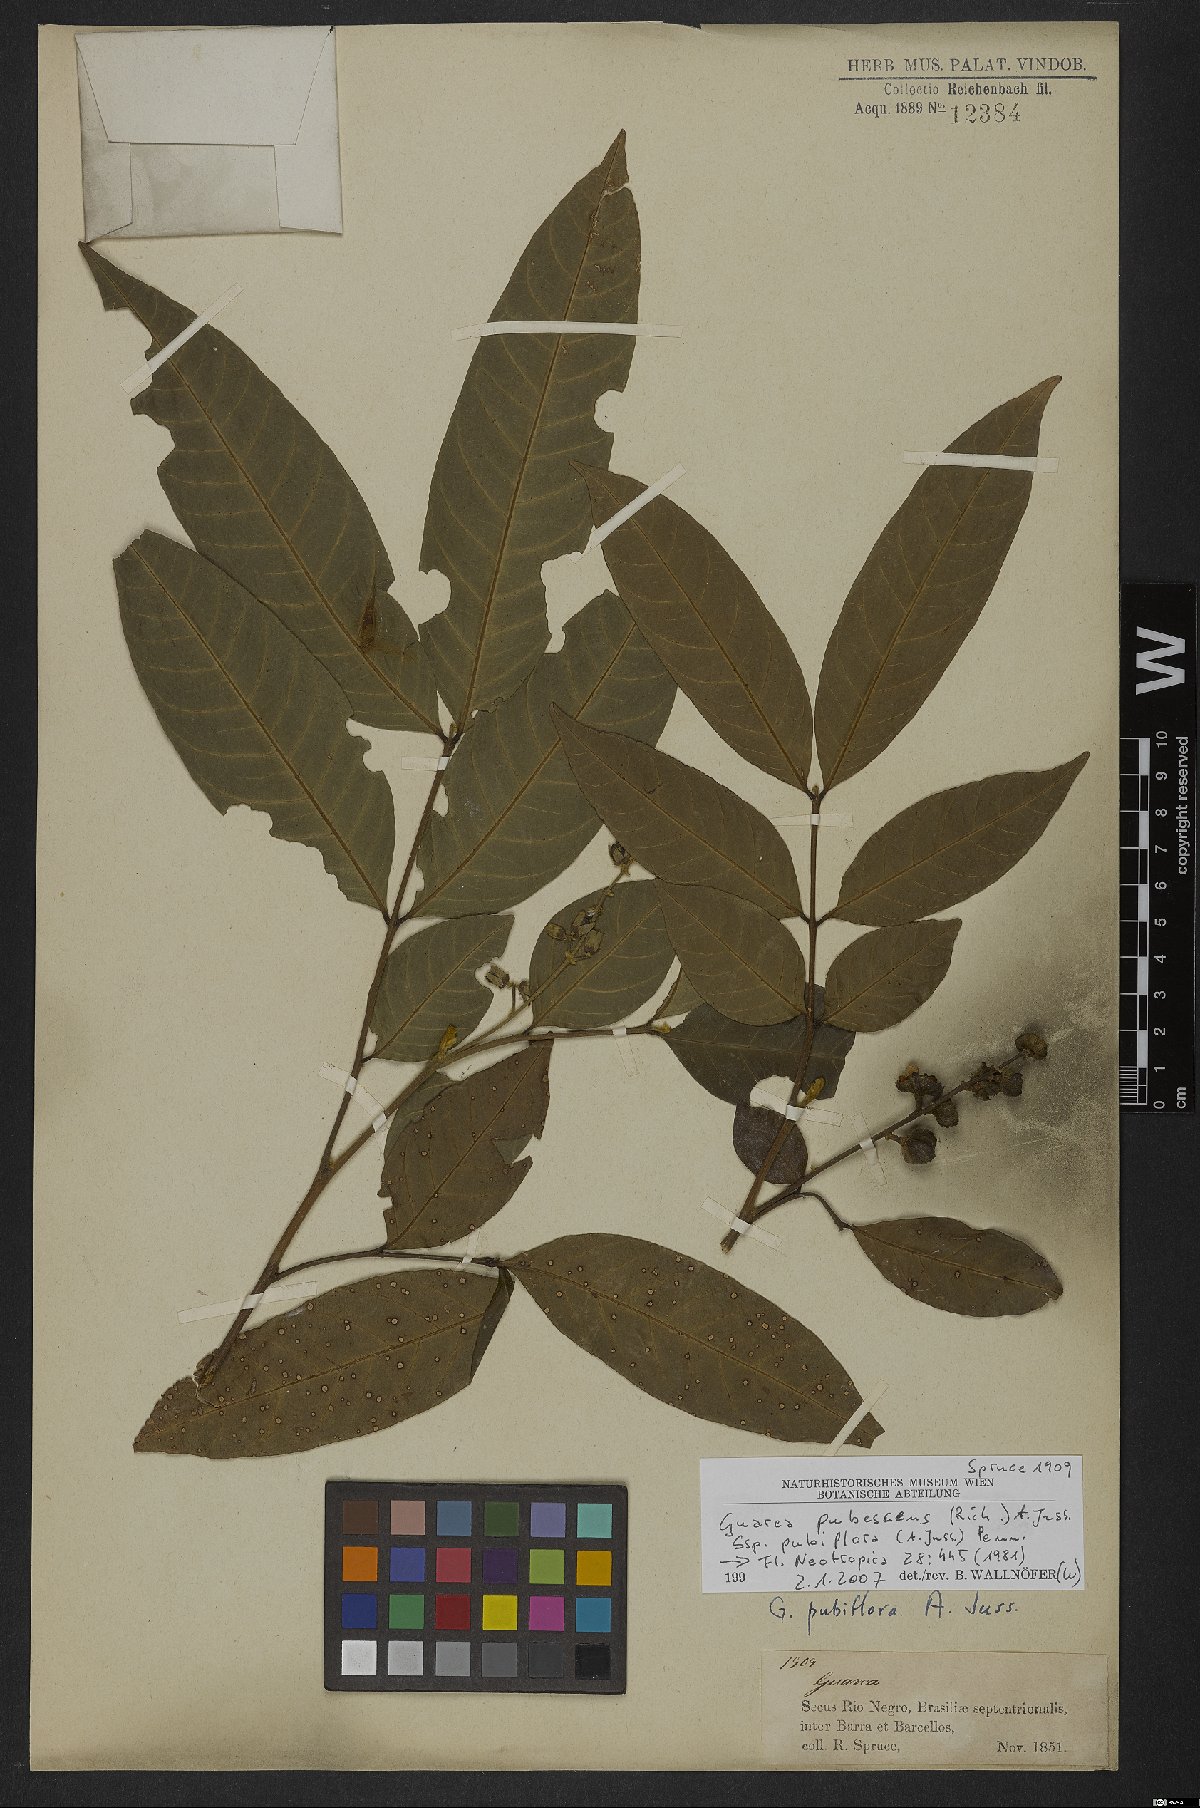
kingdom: Plantae
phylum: Tracheophyta
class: Magnoliopsida
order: Sapindales
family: Meliaceae
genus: Guarea
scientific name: Guarea pubescens
